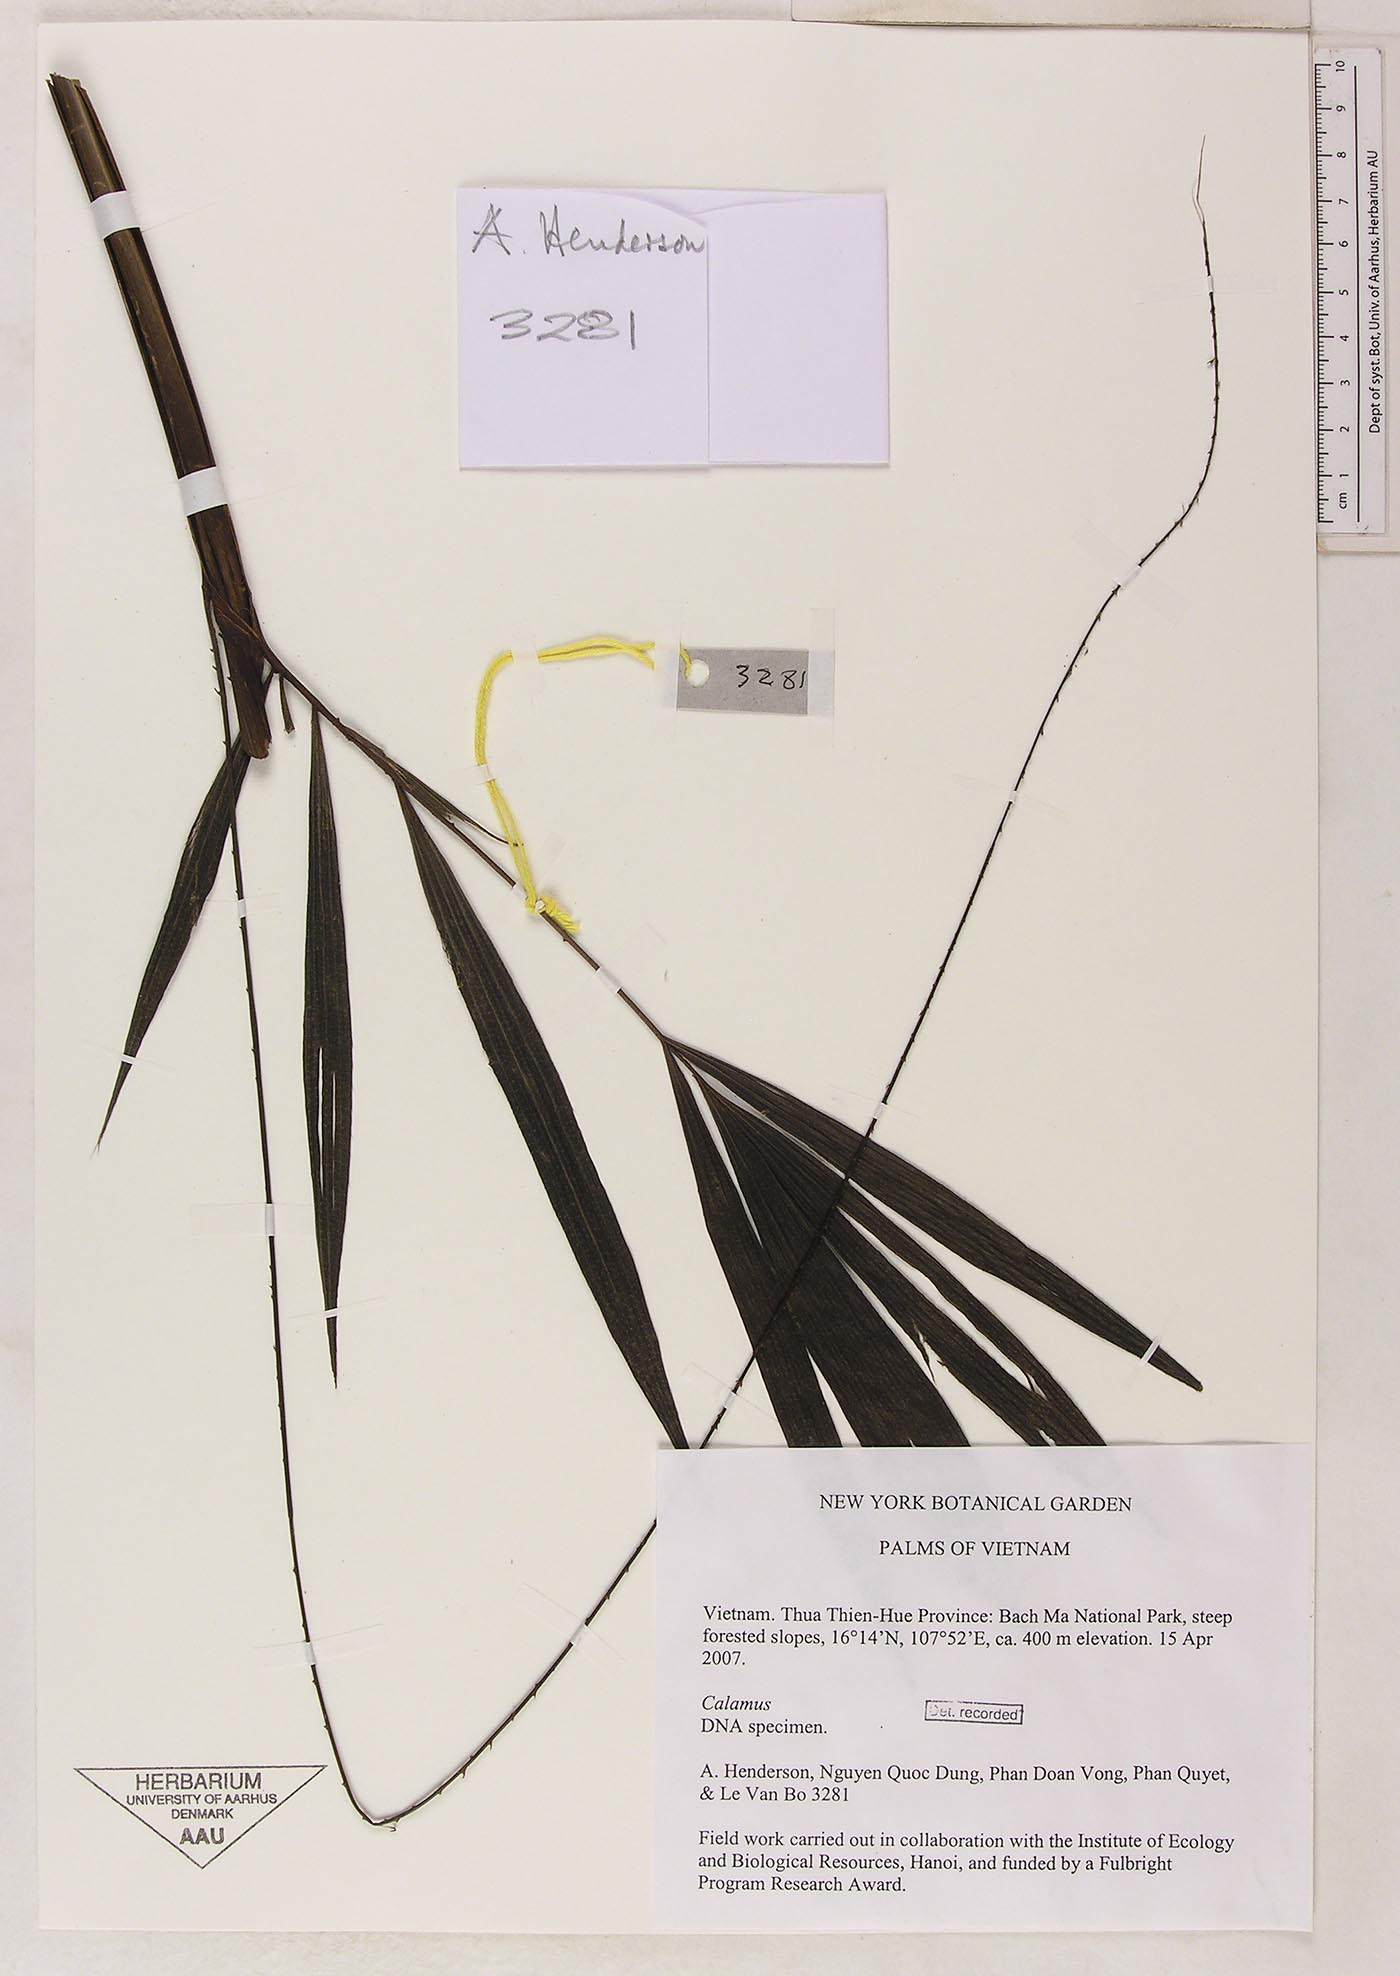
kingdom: Plantae
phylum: Tracheophyta
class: Liliopsida
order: Arecales
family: Arecaceae
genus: Calamus
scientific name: Calamus dioicus
